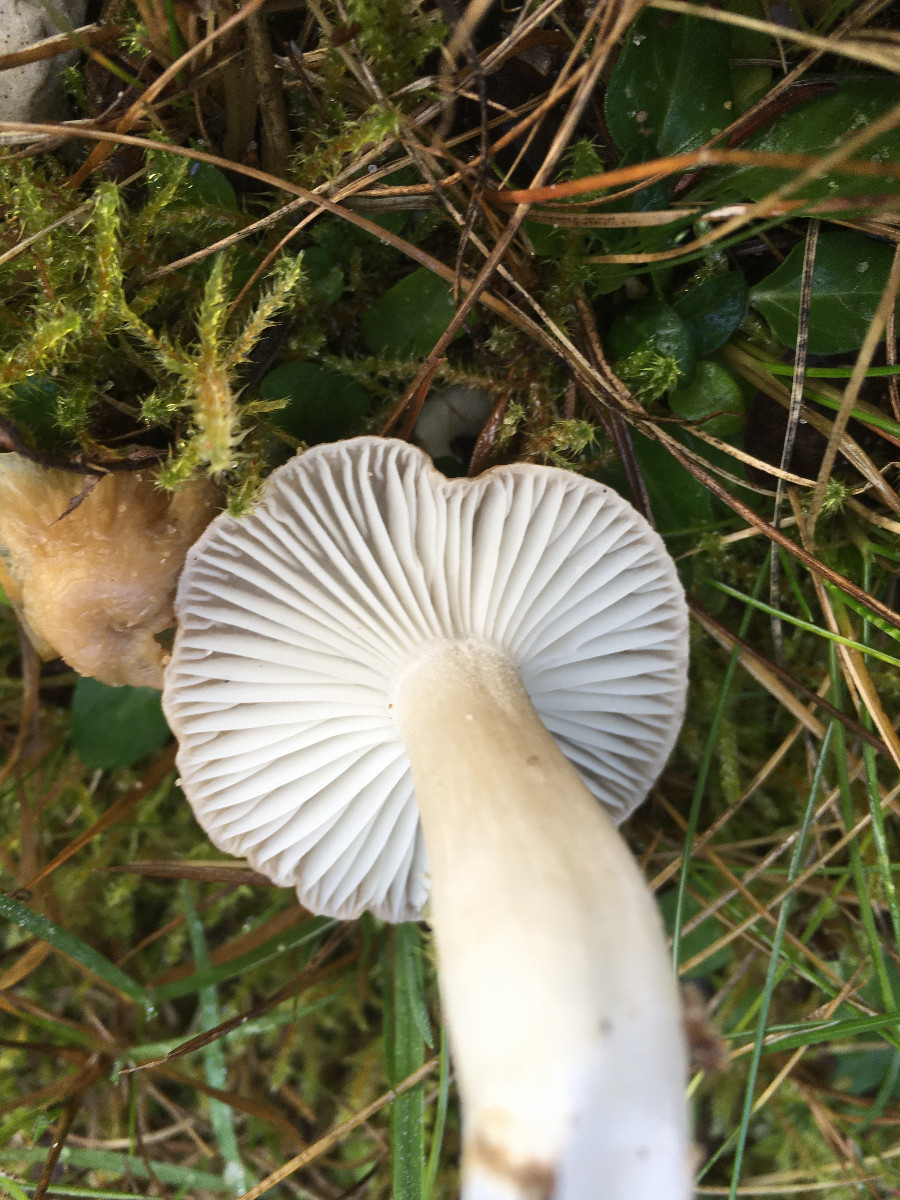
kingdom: Fungi
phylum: Basidiomycota
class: Agaricomycetes
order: Agaricales
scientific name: Agaricales
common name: champignonordenen
